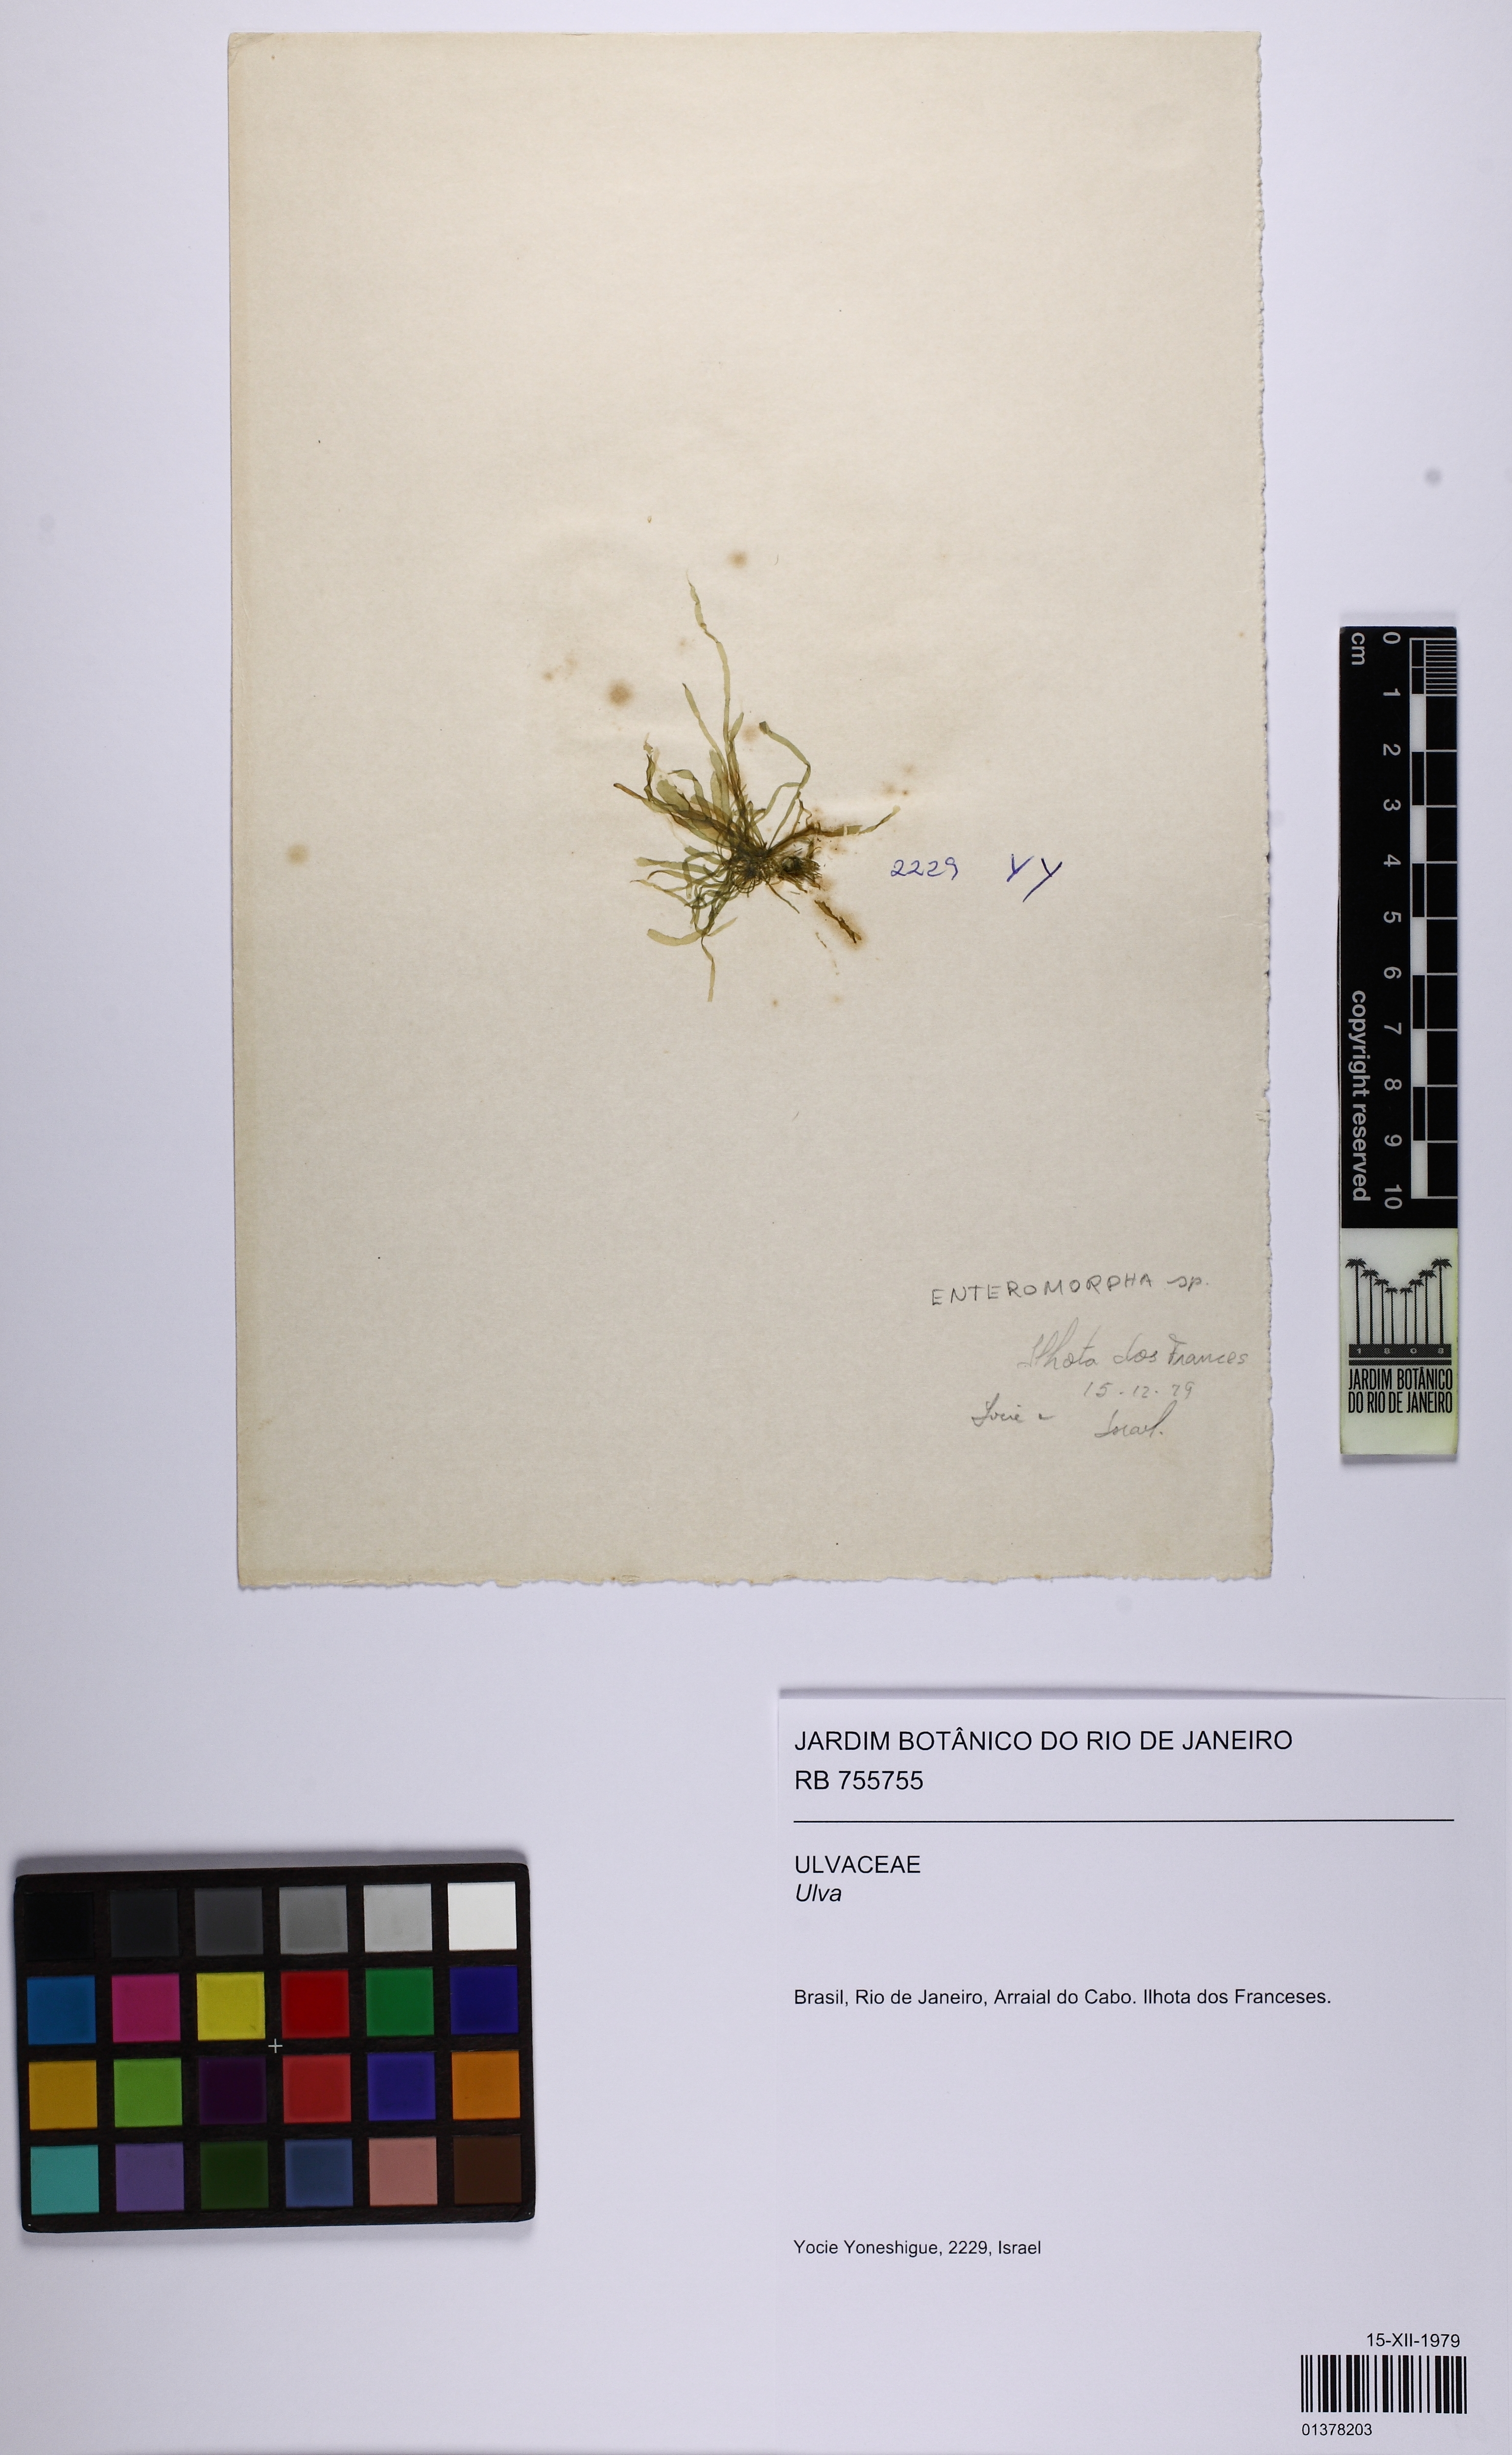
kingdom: Plantae
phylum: Chlorophyta
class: Ulvophyceae
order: Ulvales
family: Ulvaceae
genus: Ulva
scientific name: Ulva
